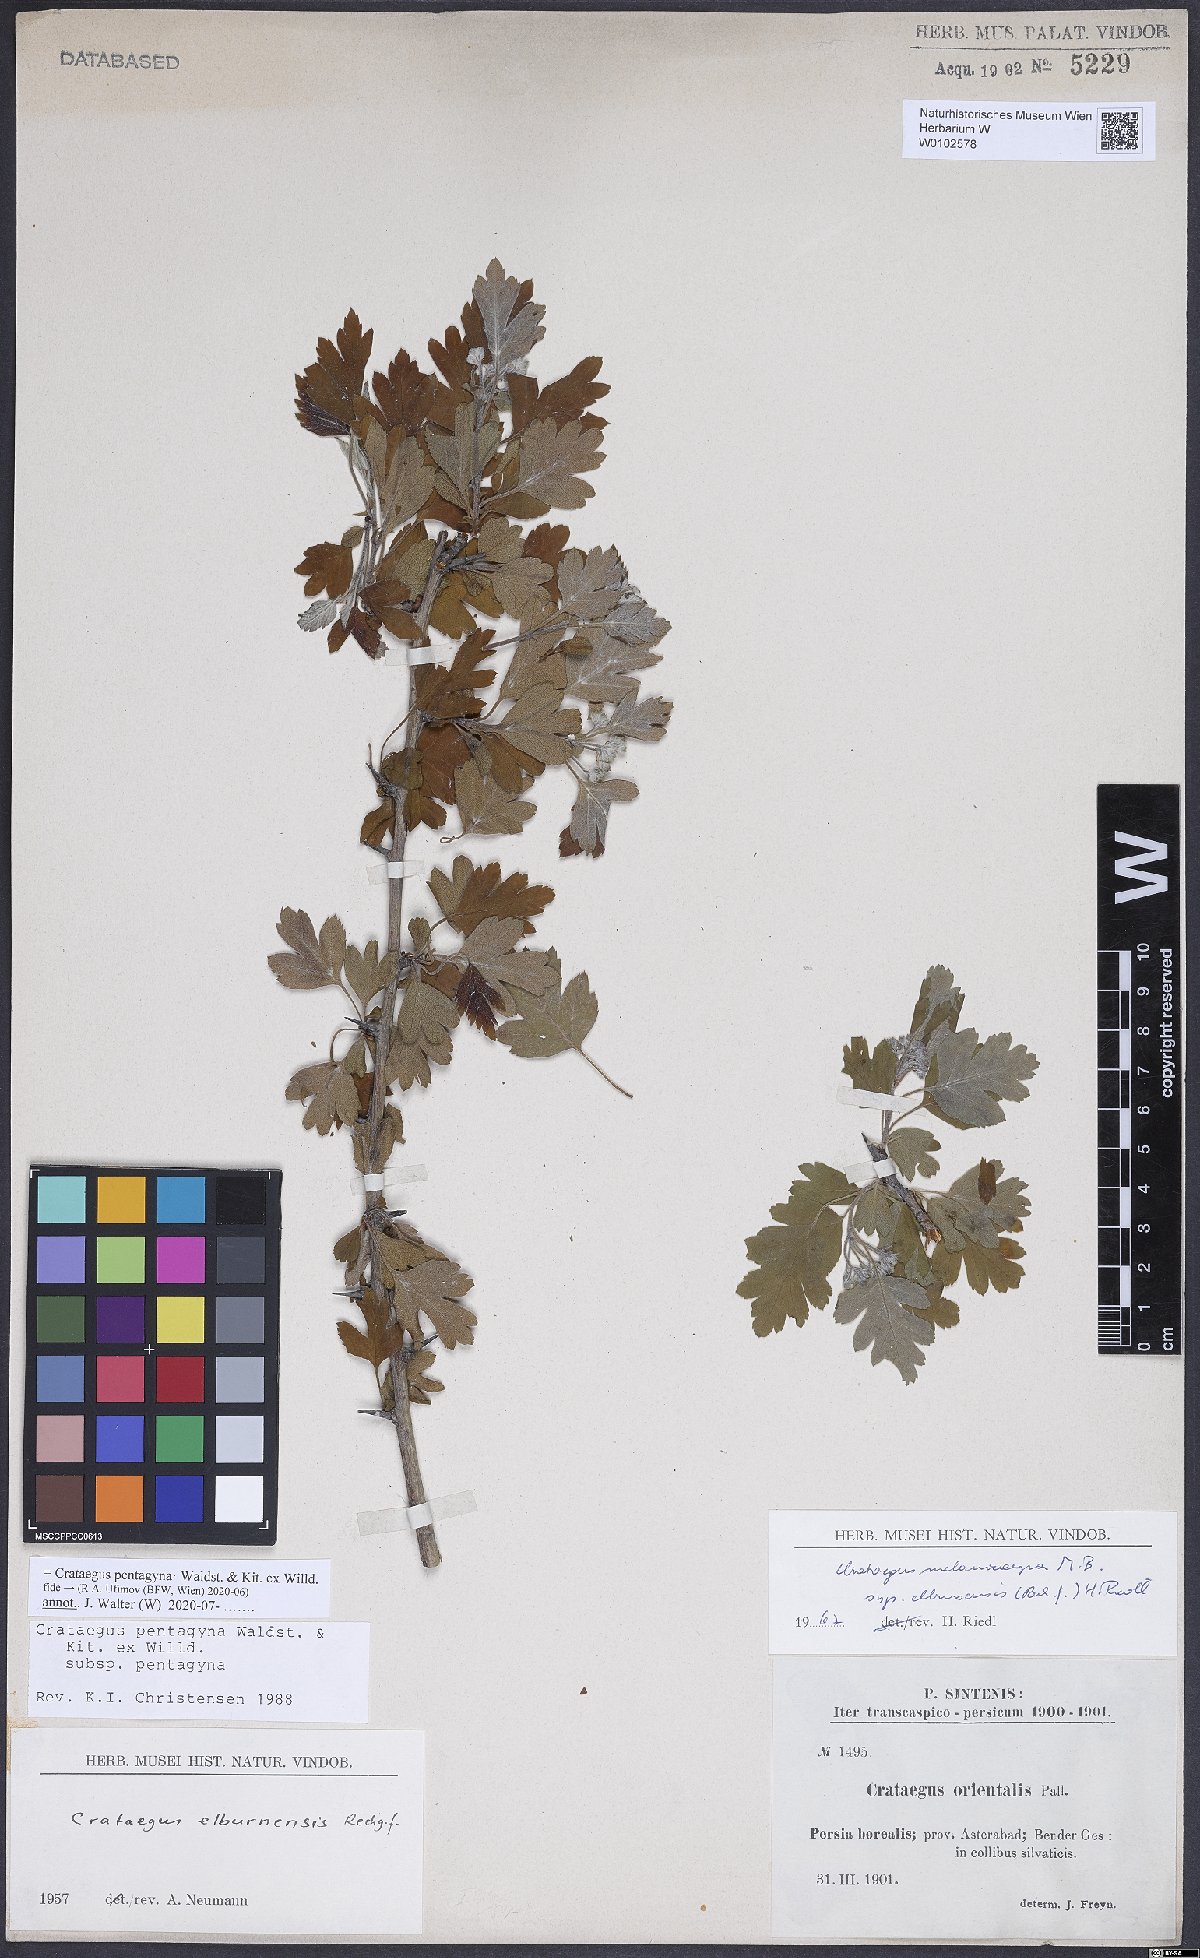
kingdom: Plantae
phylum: Tracheophyta
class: Magnoliopsida
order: Rosales
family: Rosaceae
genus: Crataegus
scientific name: Crataegus pentagyna
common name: Small-flowered black hawthorn
